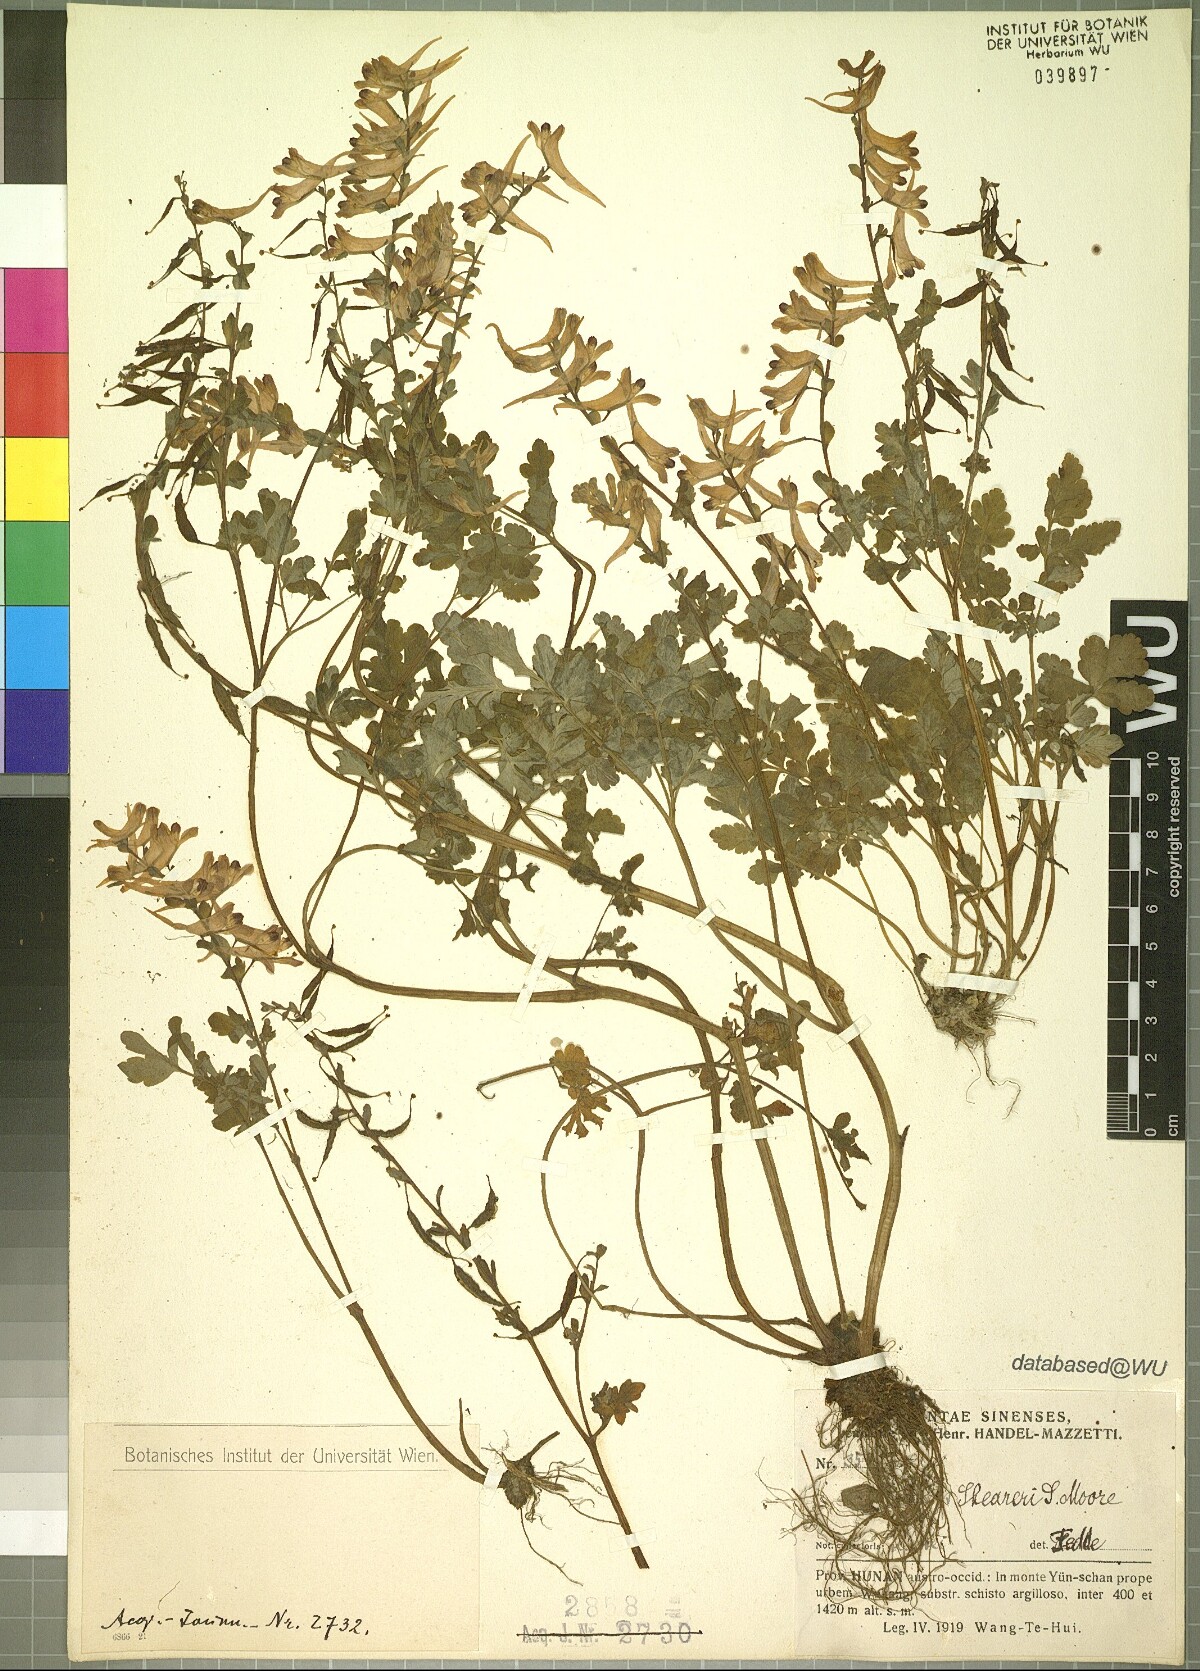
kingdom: Plantae
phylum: Tracheophyta
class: Magnoliopsida
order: Ranunculales
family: Papaveraceae
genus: Corydalis
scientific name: Corydalis sheareri
